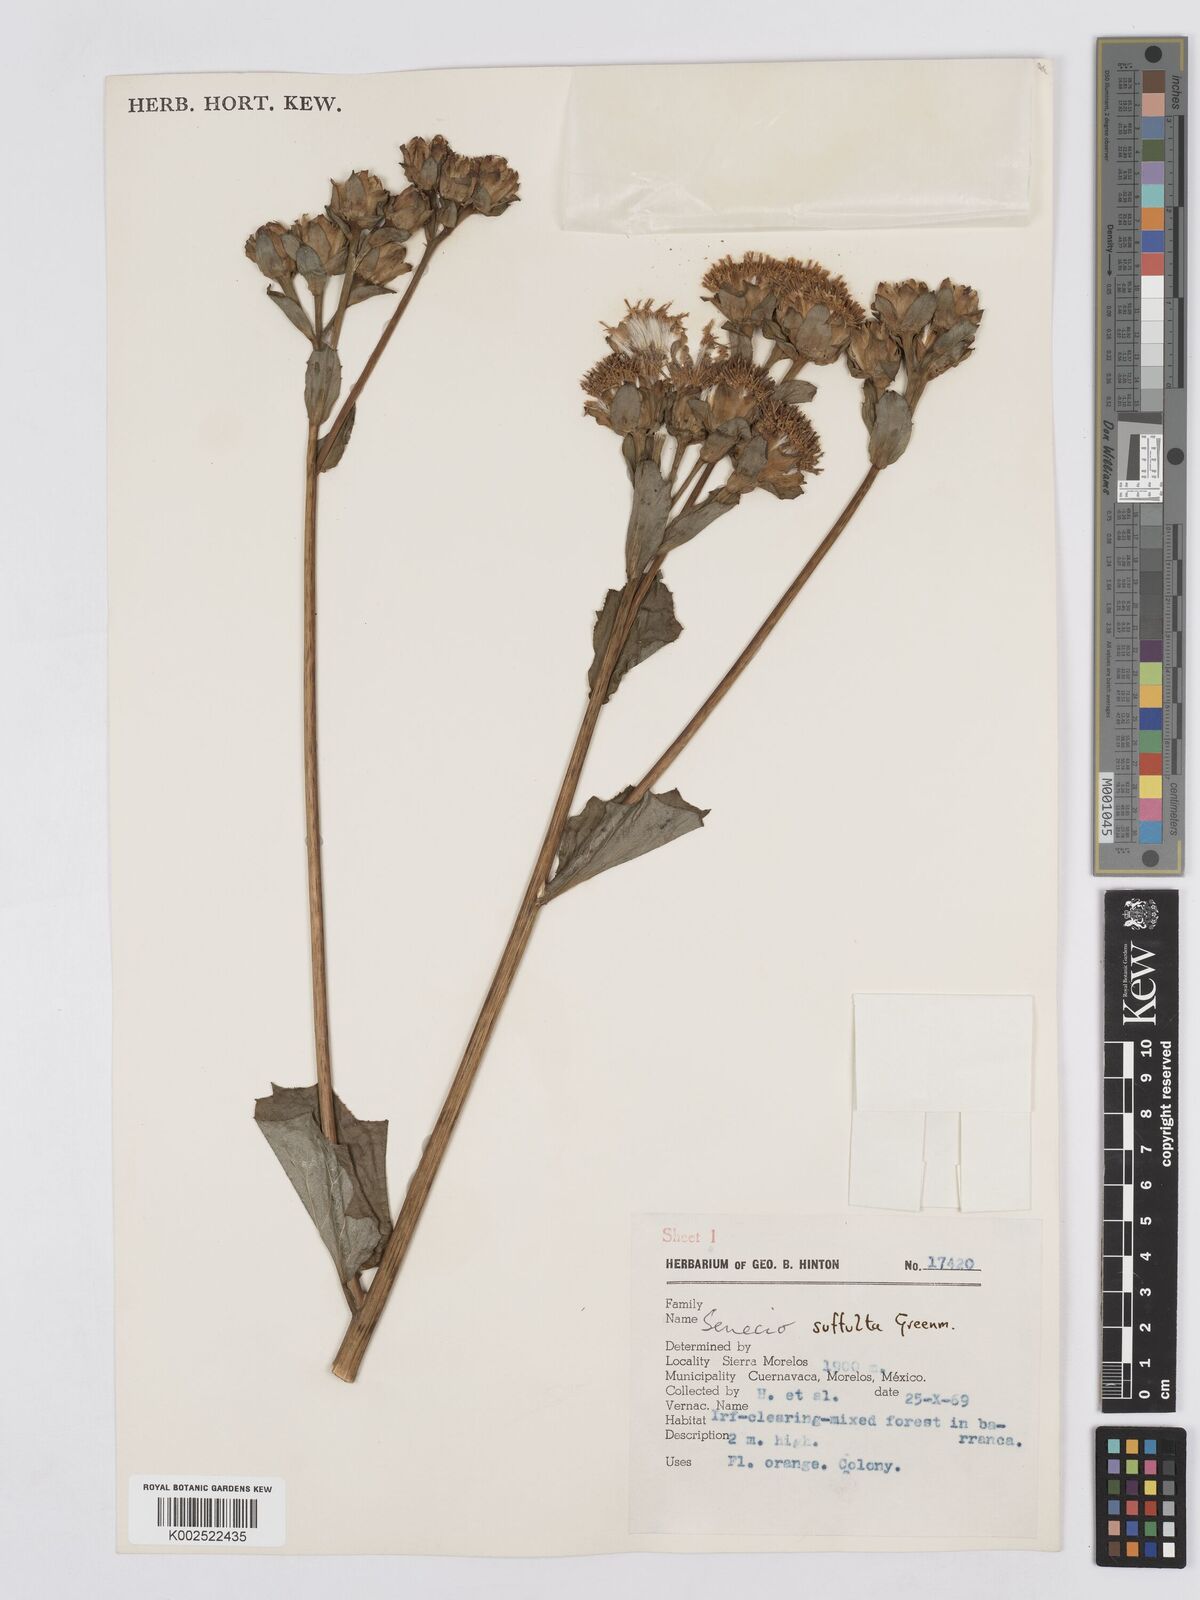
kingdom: Plantae
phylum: Tracheophyta
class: Magnoliopsida
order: Asterales
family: Asteraceae
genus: Roldana
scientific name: Roldana suffulta
